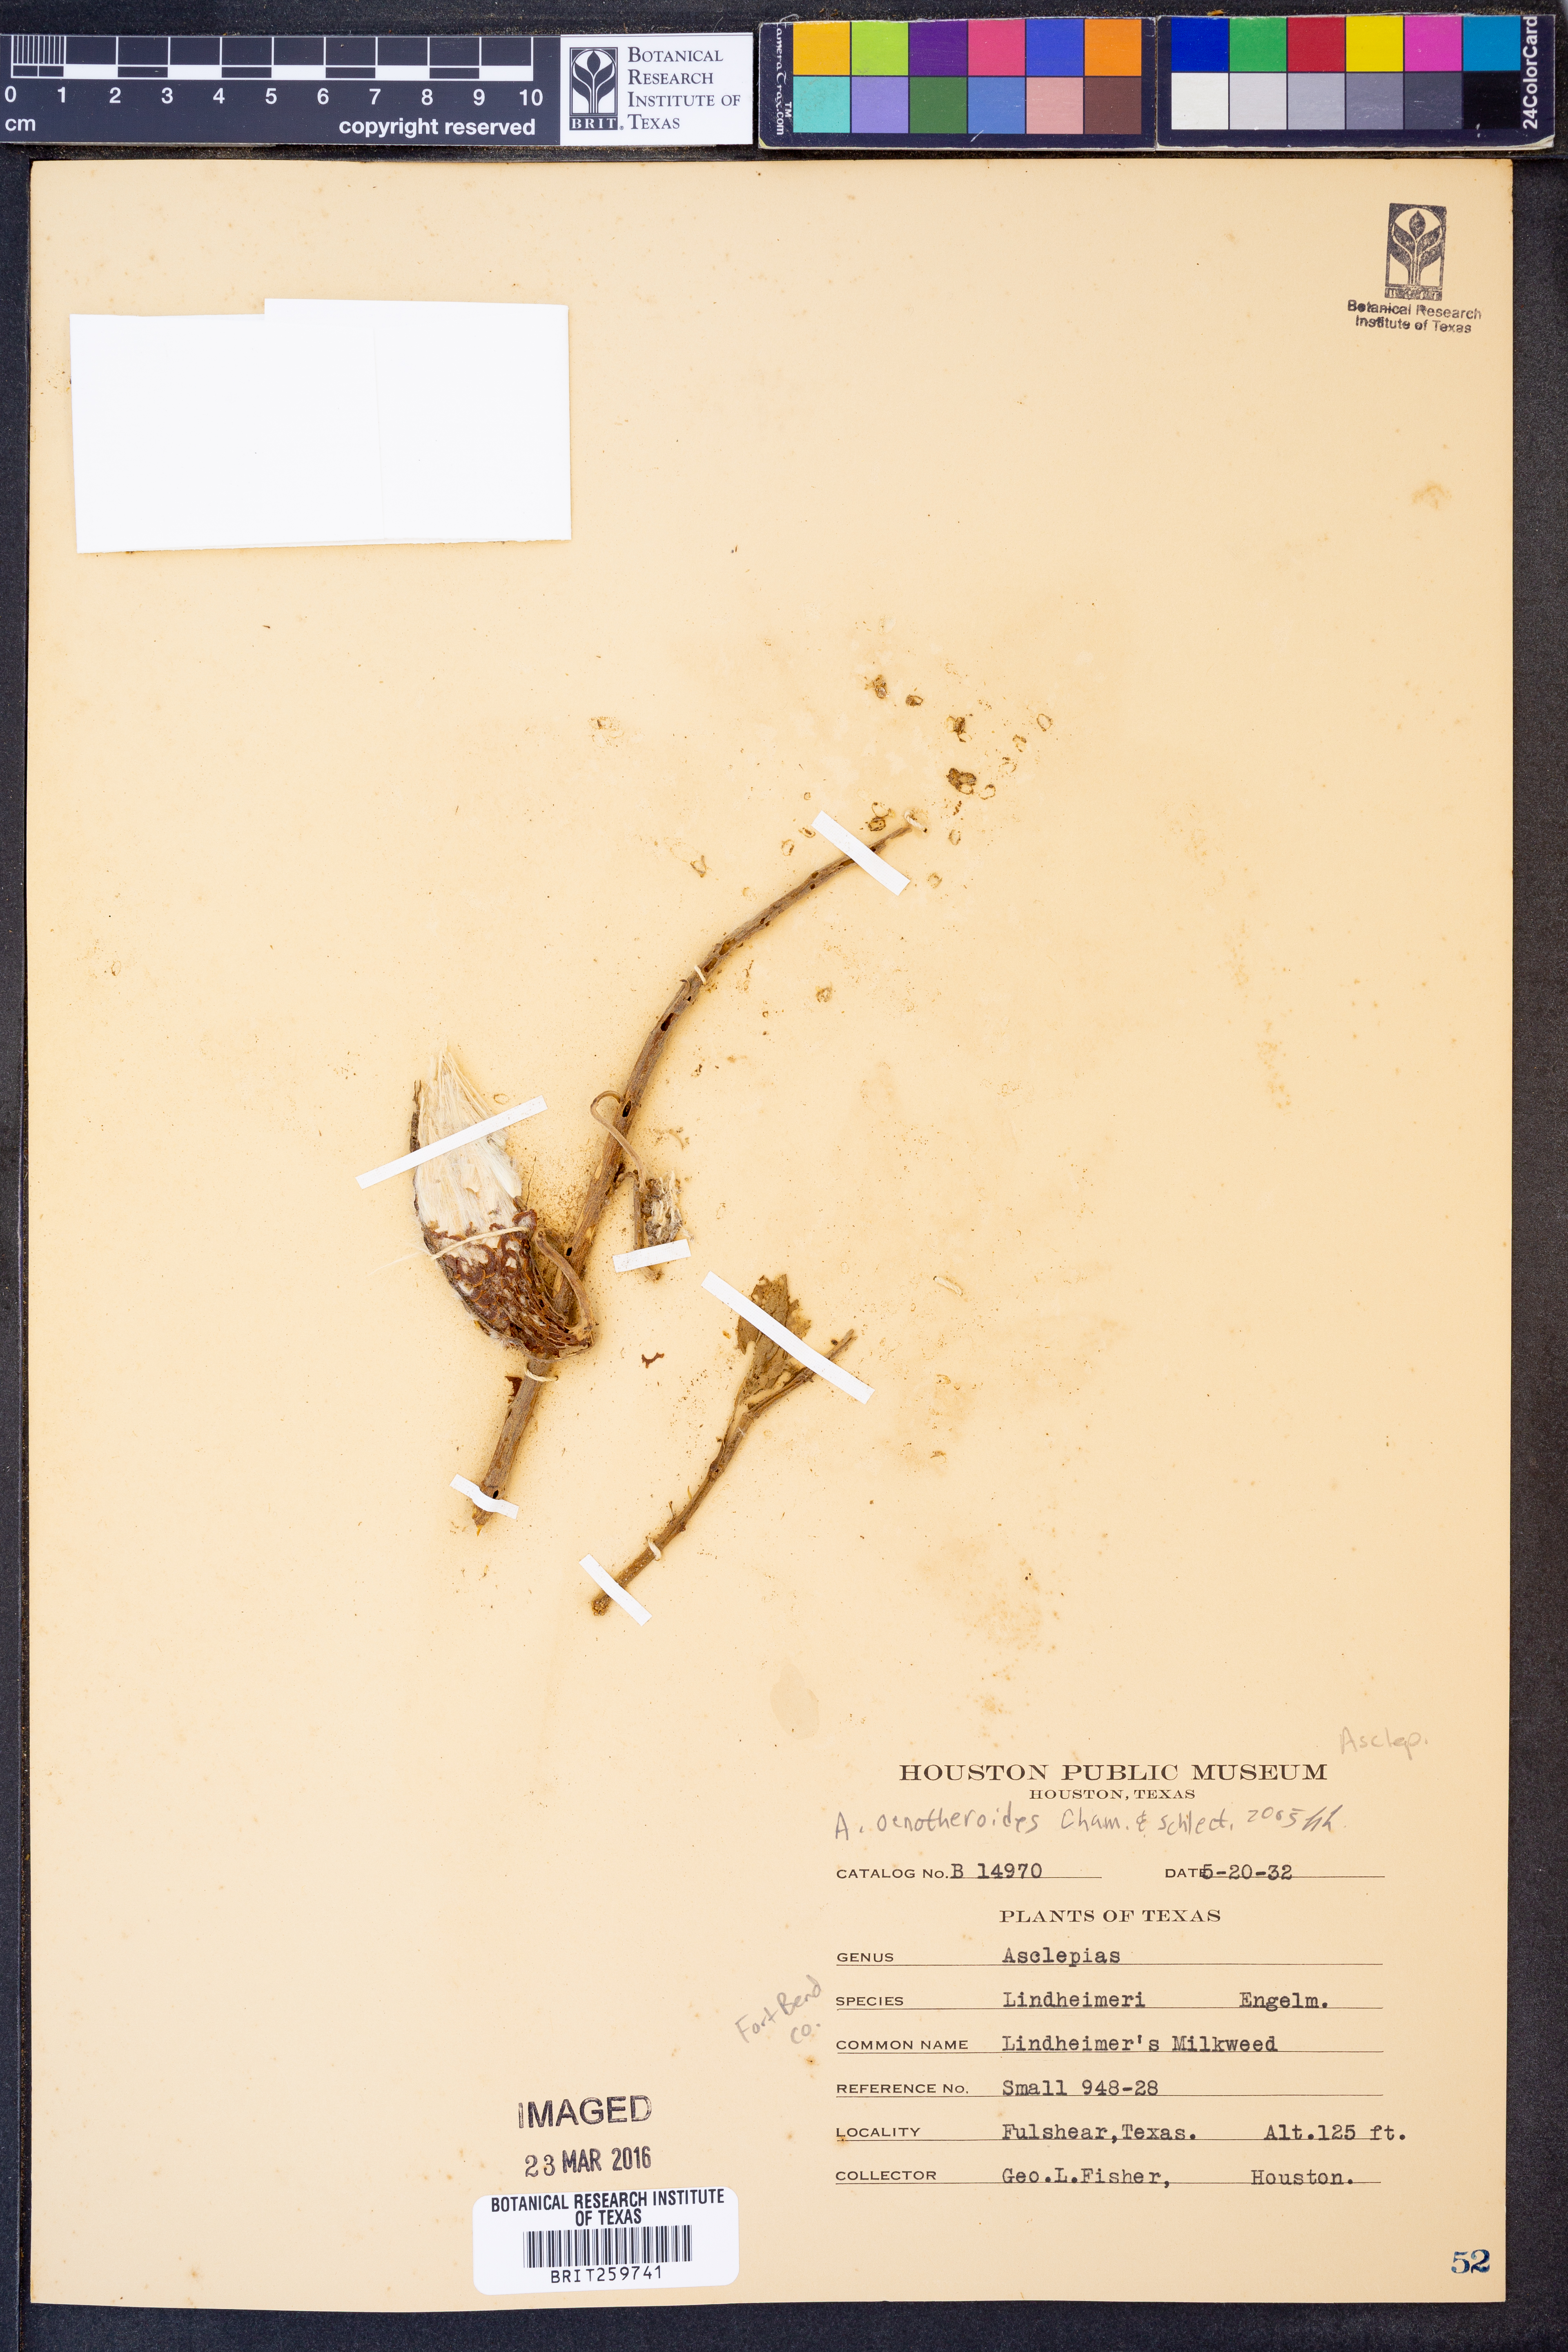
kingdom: Plantae
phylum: Tracheophyta
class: Magnoliopsida
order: Gentianales
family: Apocynaceae
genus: Asclepias
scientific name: Asclepias oenotheroides
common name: Zizotes milkweed
